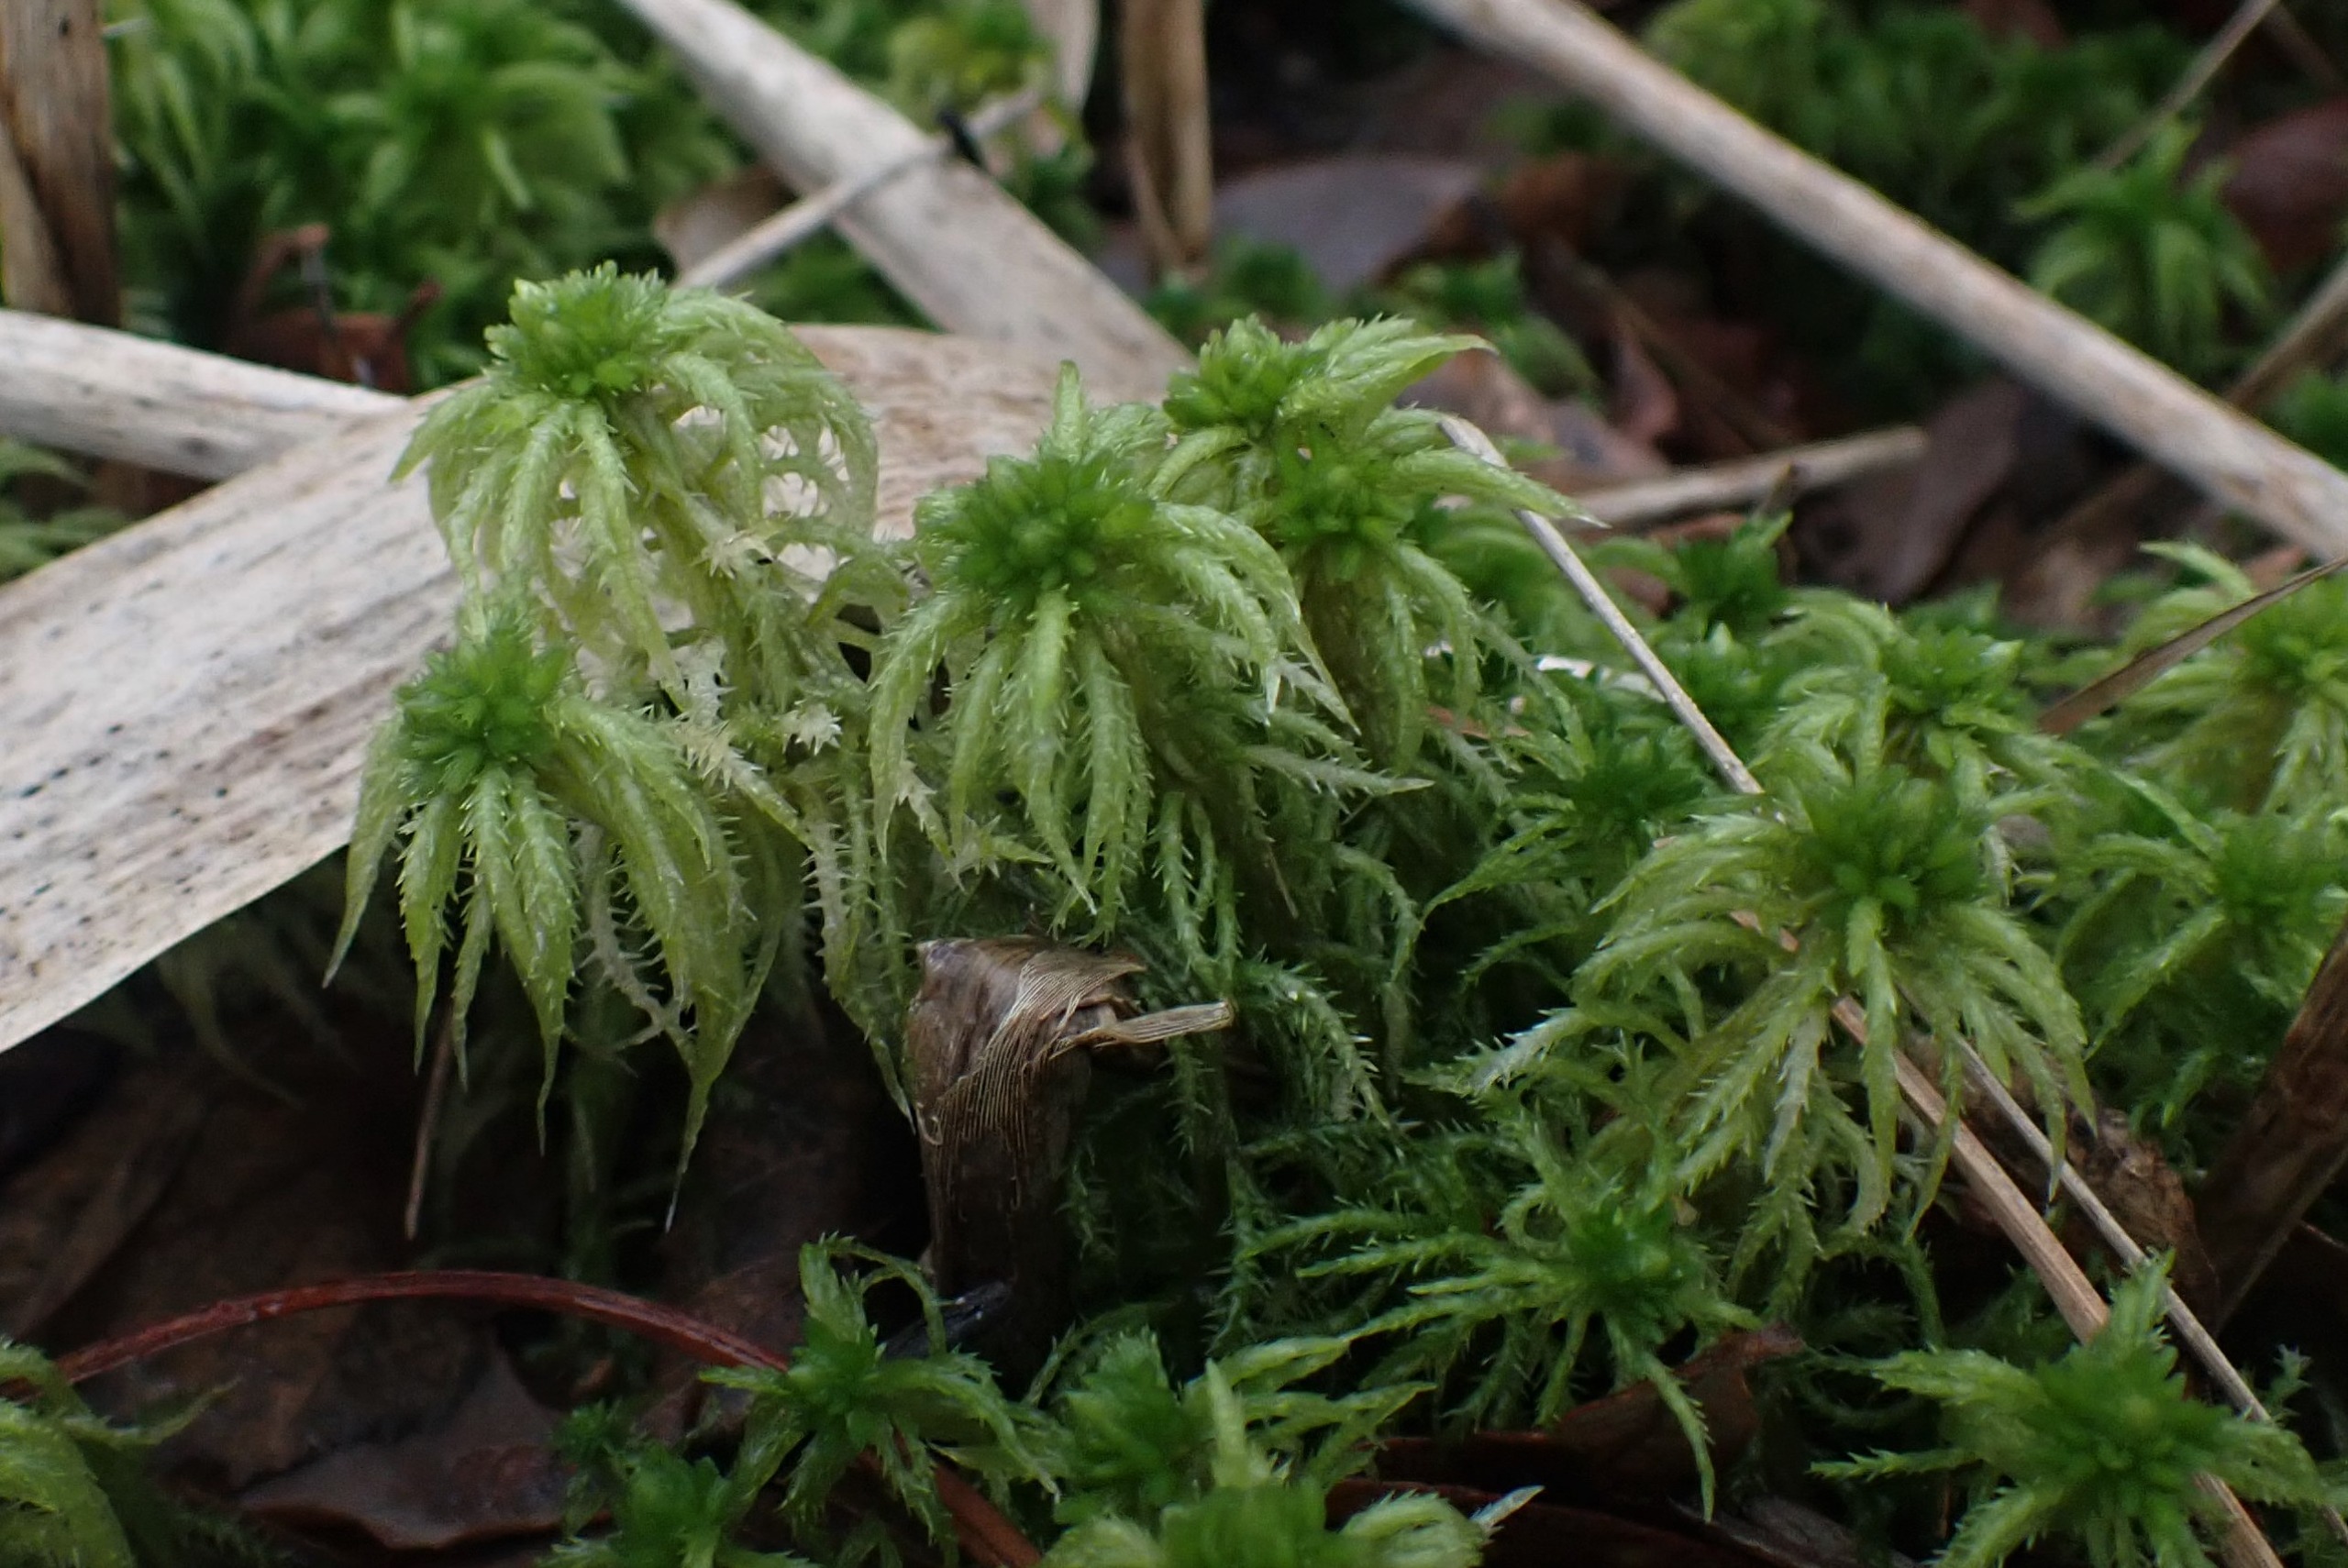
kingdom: Plantae
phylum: Bryophyta
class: Sphagnopsida
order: Sphagnales
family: Sphagnaceae
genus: Sphagnum
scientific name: Sphagnum squarrosum
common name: Udspærret tørvemos
